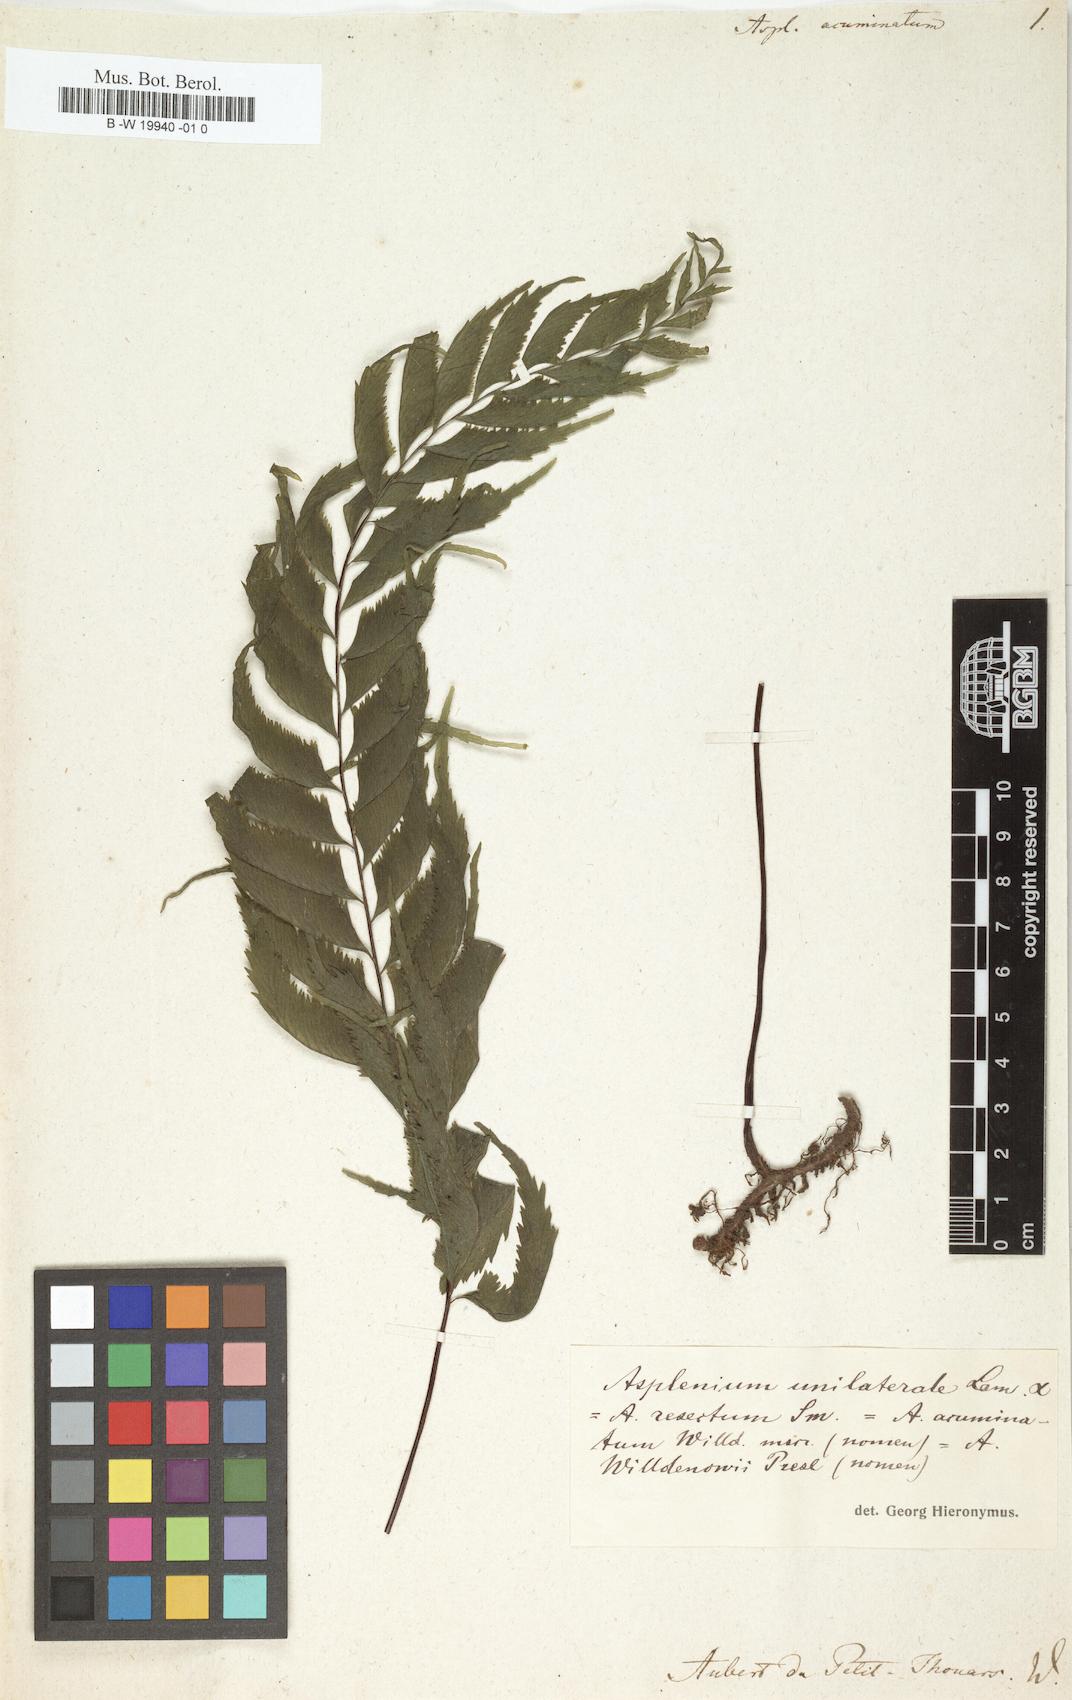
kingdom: Plantae
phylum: Tracheophyta
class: Polypodiopsida
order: Polypodiales
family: Aspleniaceae
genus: Asplenium
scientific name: Asplenium acuminatum
